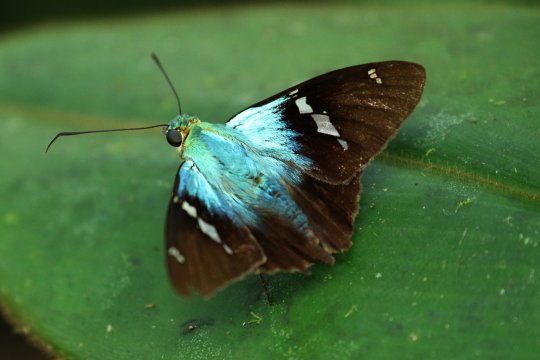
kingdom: Animalia
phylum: Arthropoda
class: Insecta
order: Lepidoptera
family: Hesperiidae
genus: Astraptes
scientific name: Astraptes fulgerator
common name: Two-barred Flasher
